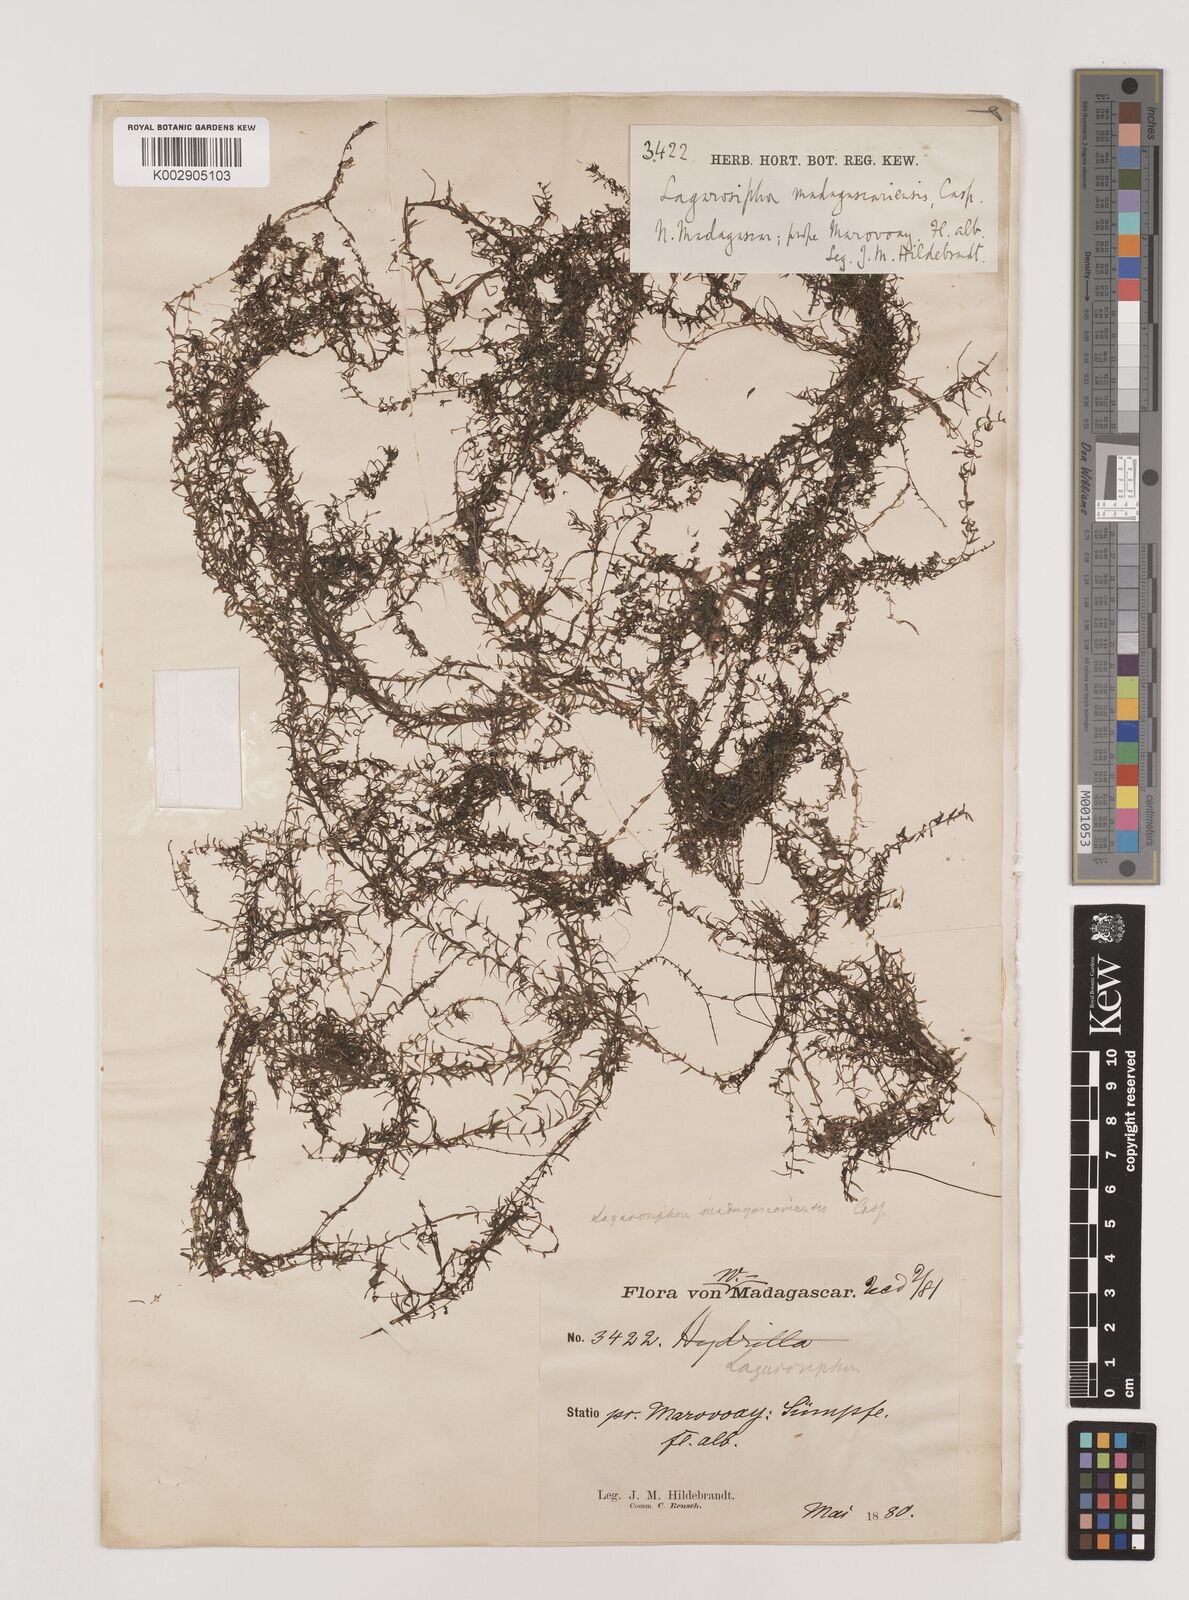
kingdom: Plantae
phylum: Tracheophyta
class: Liliopsida
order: Alismatales
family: Hydrocharitaceae
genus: Lagarosiphon
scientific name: Lagarosiphon madagascariensis
